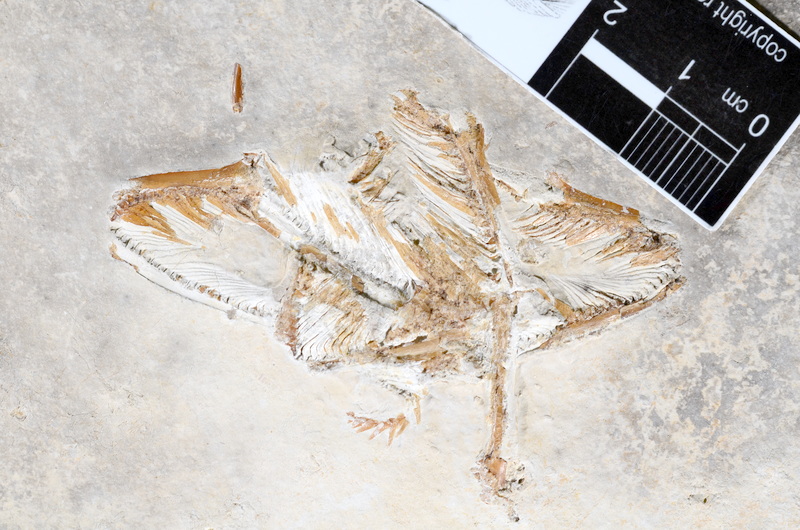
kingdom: Animalia
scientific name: Animalia
